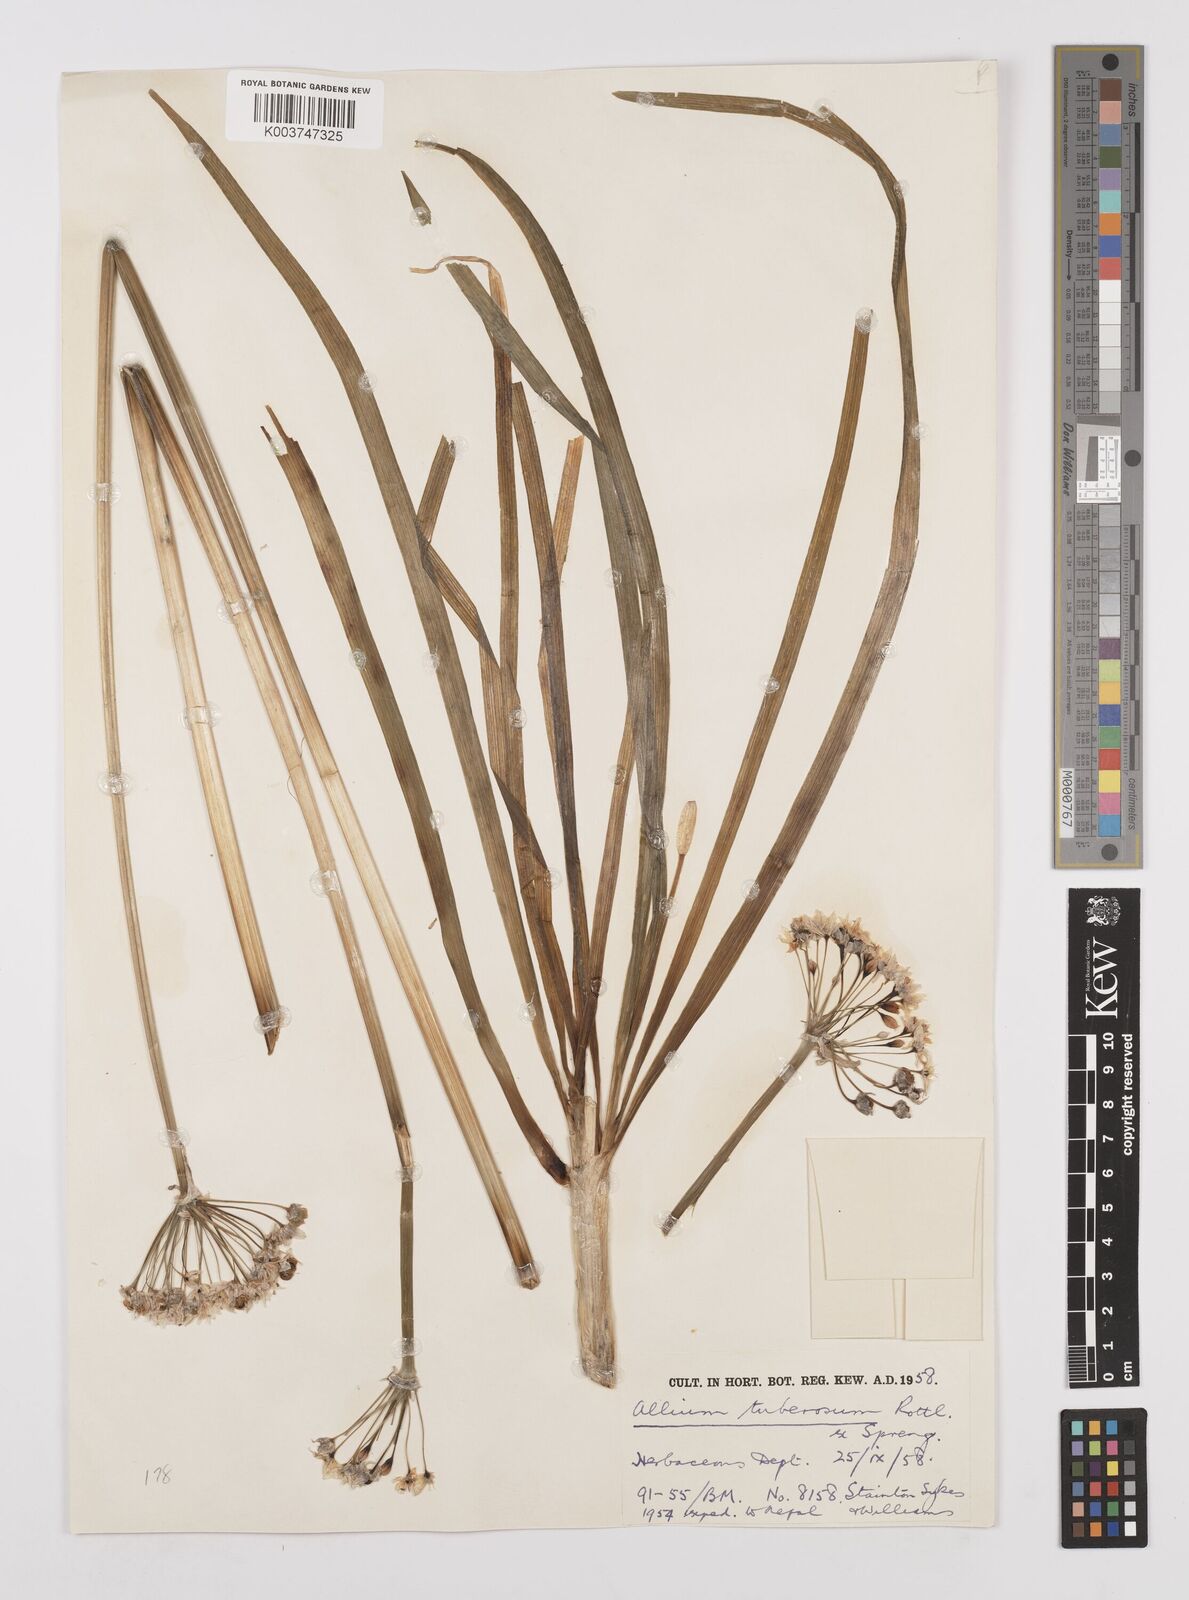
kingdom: Plantae
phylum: Tracheophyta
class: Liliopsida
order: Asparagales
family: Amaryllidaceae
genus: Allium
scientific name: Allium tuberosum
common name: Chinese chives
